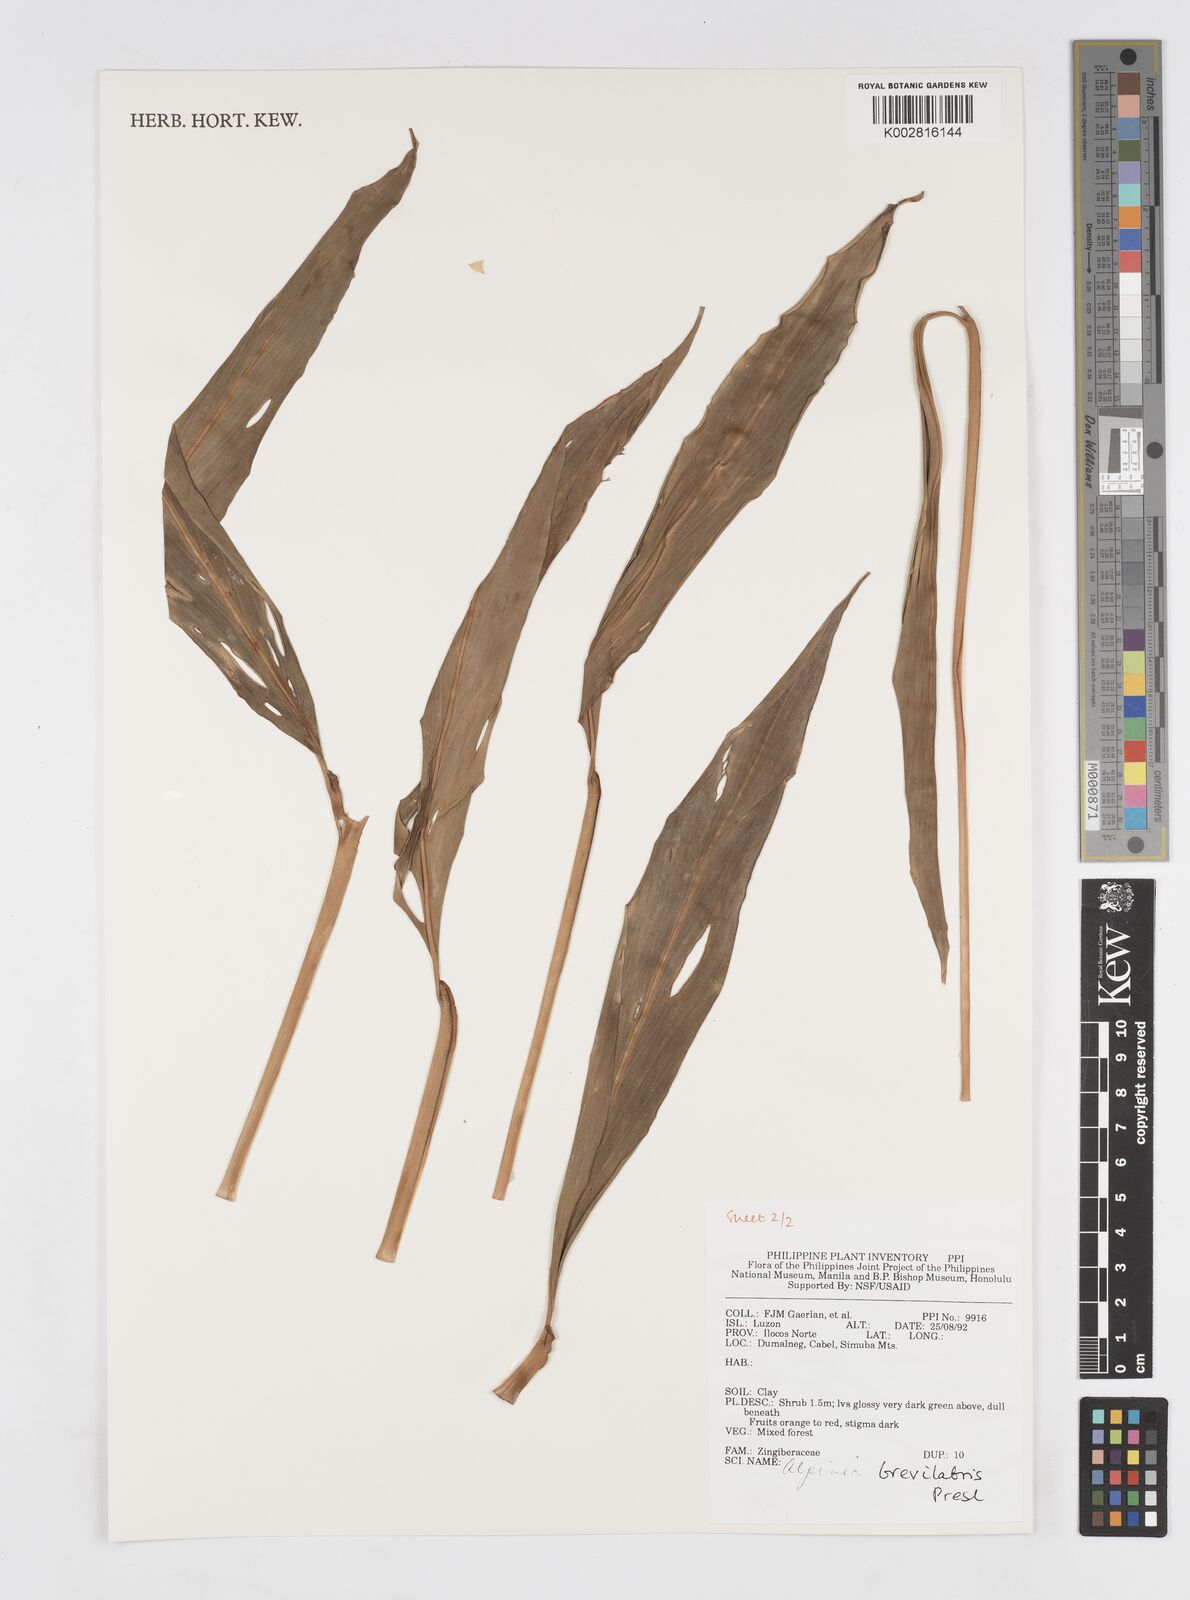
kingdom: Plantae
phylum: Tracheophyta
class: Liliopsida
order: Zingiberales
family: Zingiberaceae
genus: Alpinia
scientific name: Alpinia brevilabris
